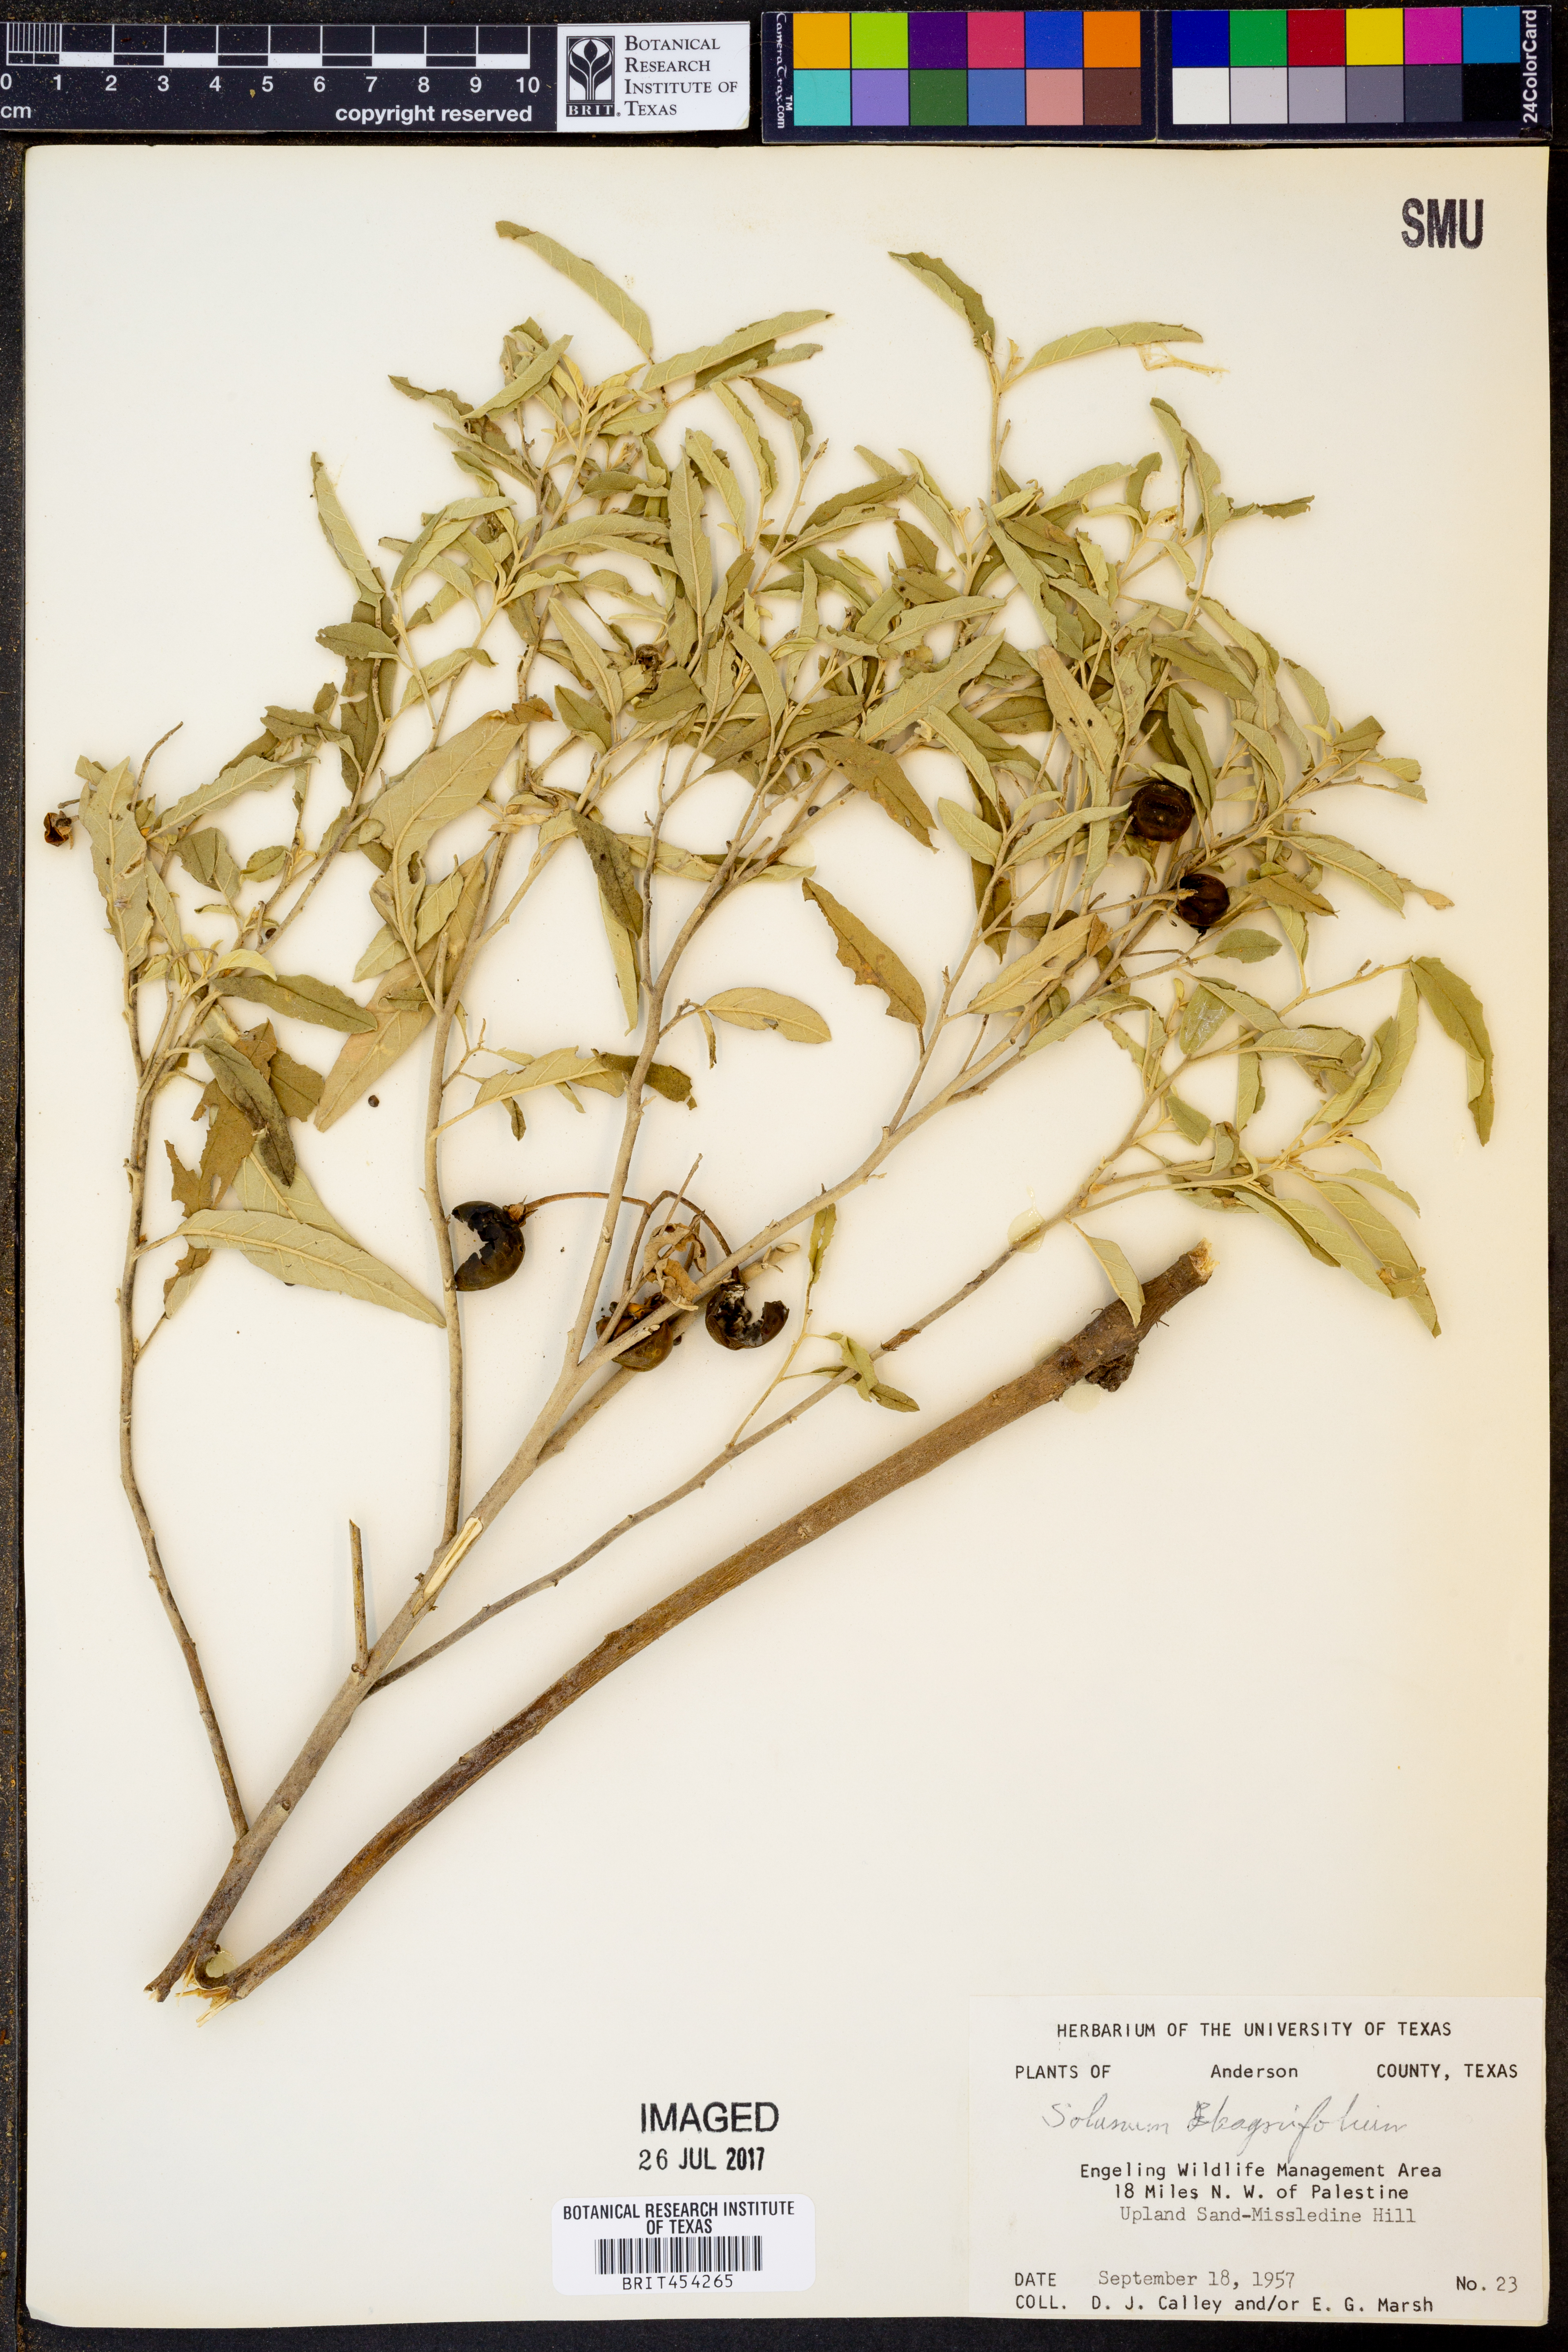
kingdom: Plantae
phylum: Tracheophyta
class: Magnoliopsida
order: Solanales
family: Solanaceae
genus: Solanum
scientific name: Solanum elaeagnifolium
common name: Silverleaf nightshade
